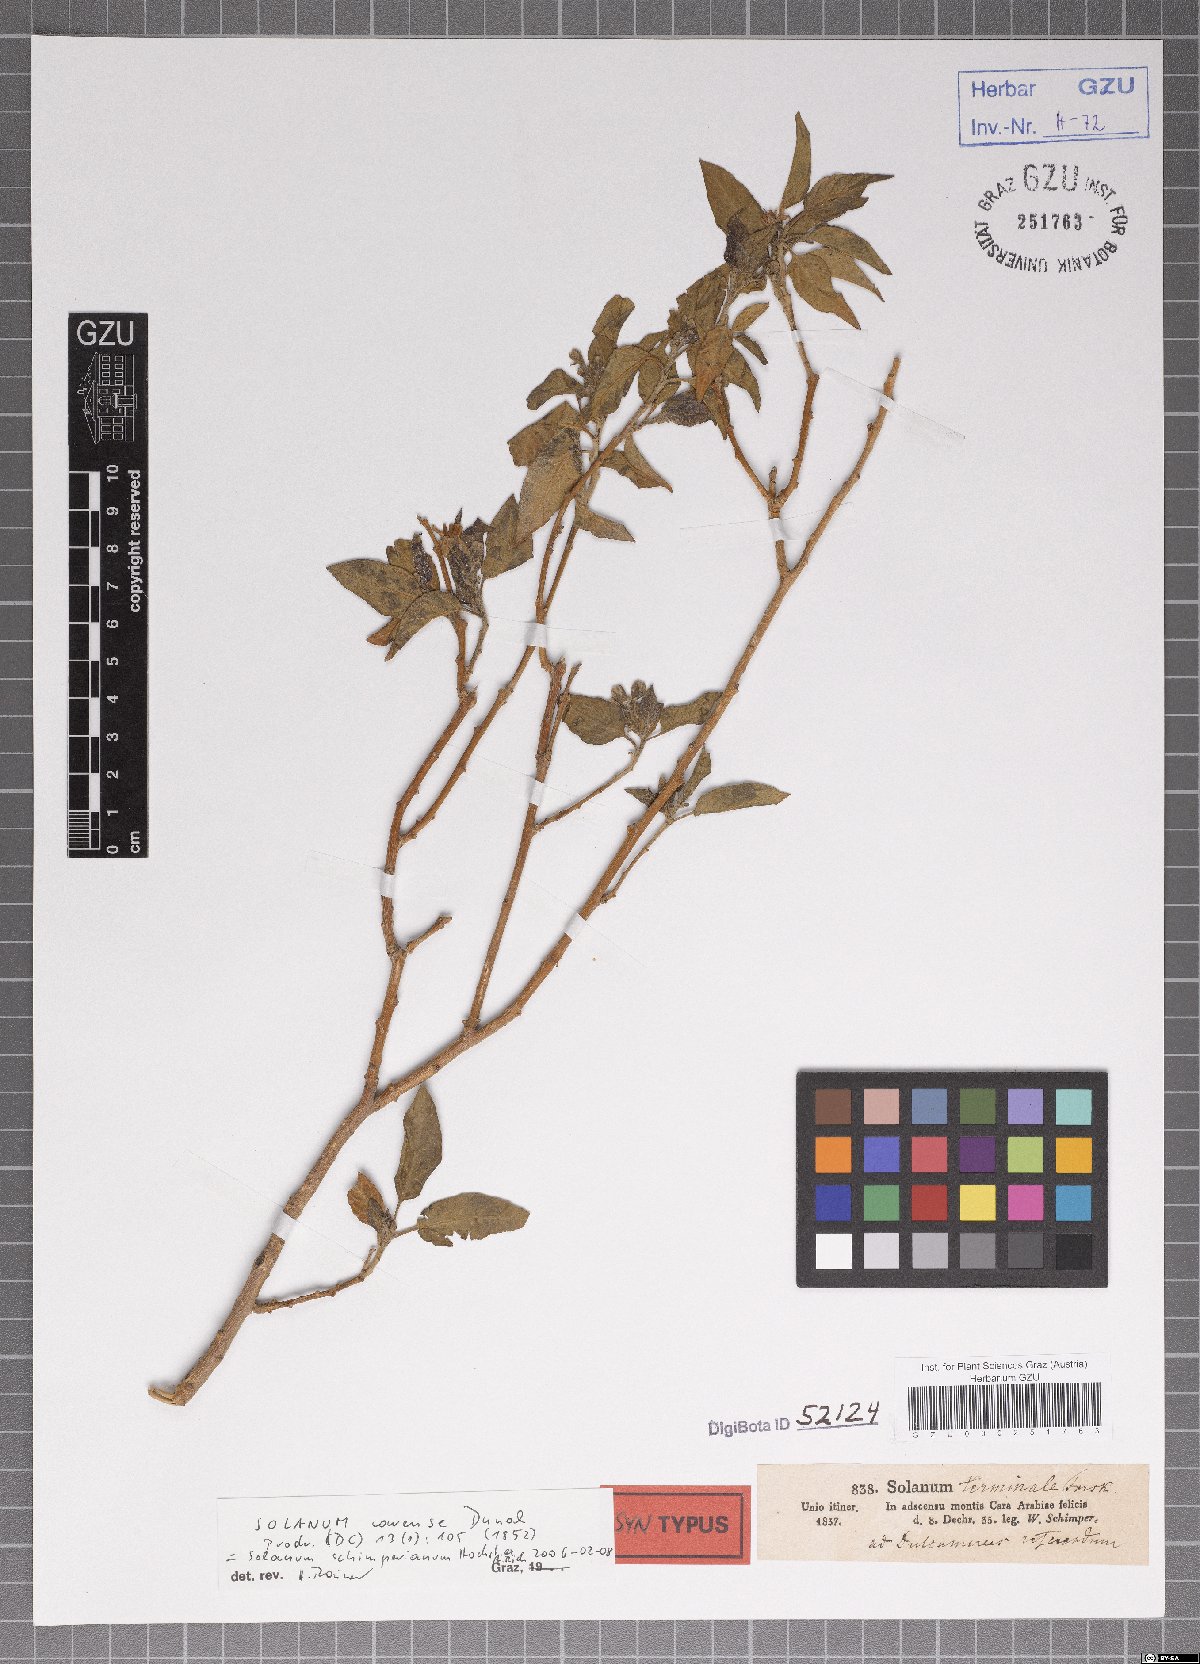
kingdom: Plantae
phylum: Tracheophyta
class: Magnoliopsida
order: Solanales
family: Solanaceae
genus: Solanum
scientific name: Solanum schimperianum
